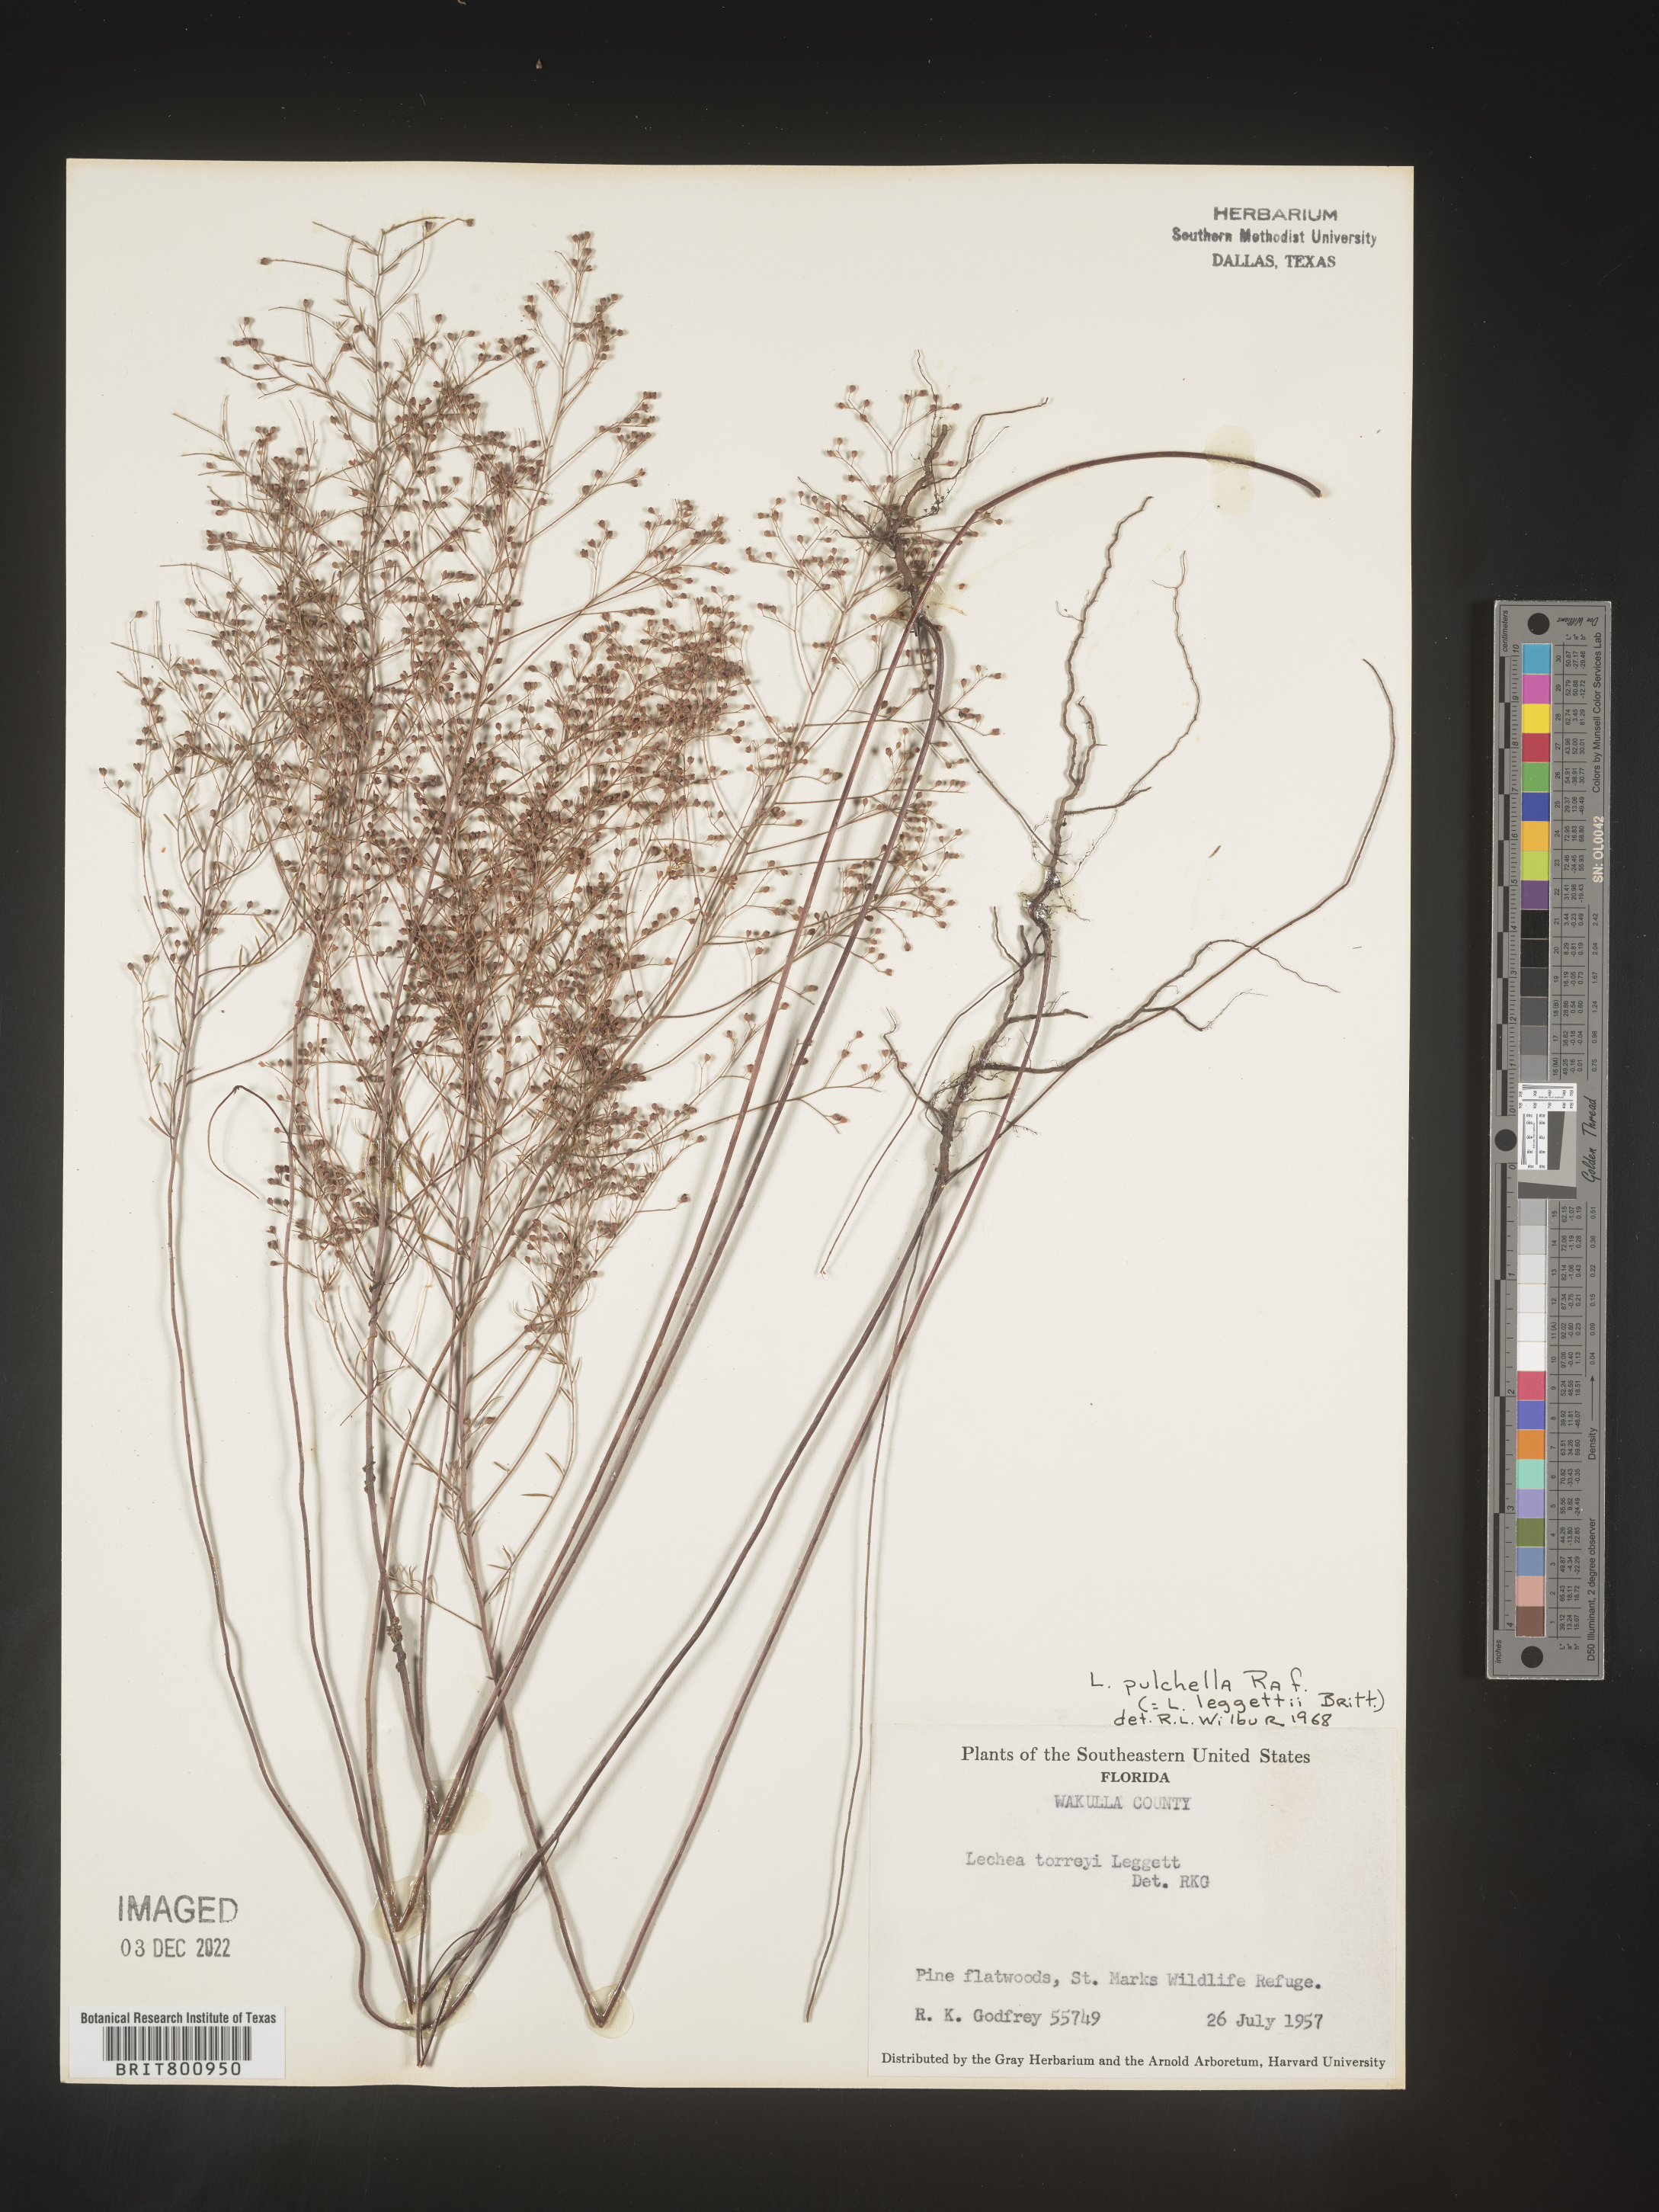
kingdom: Plantae
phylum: Tracheophyta
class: Magnoliopsida
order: Malvales
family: Cistaceae
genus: Lechea
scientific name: Lechea pulchella
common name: Leggett's pinweed
